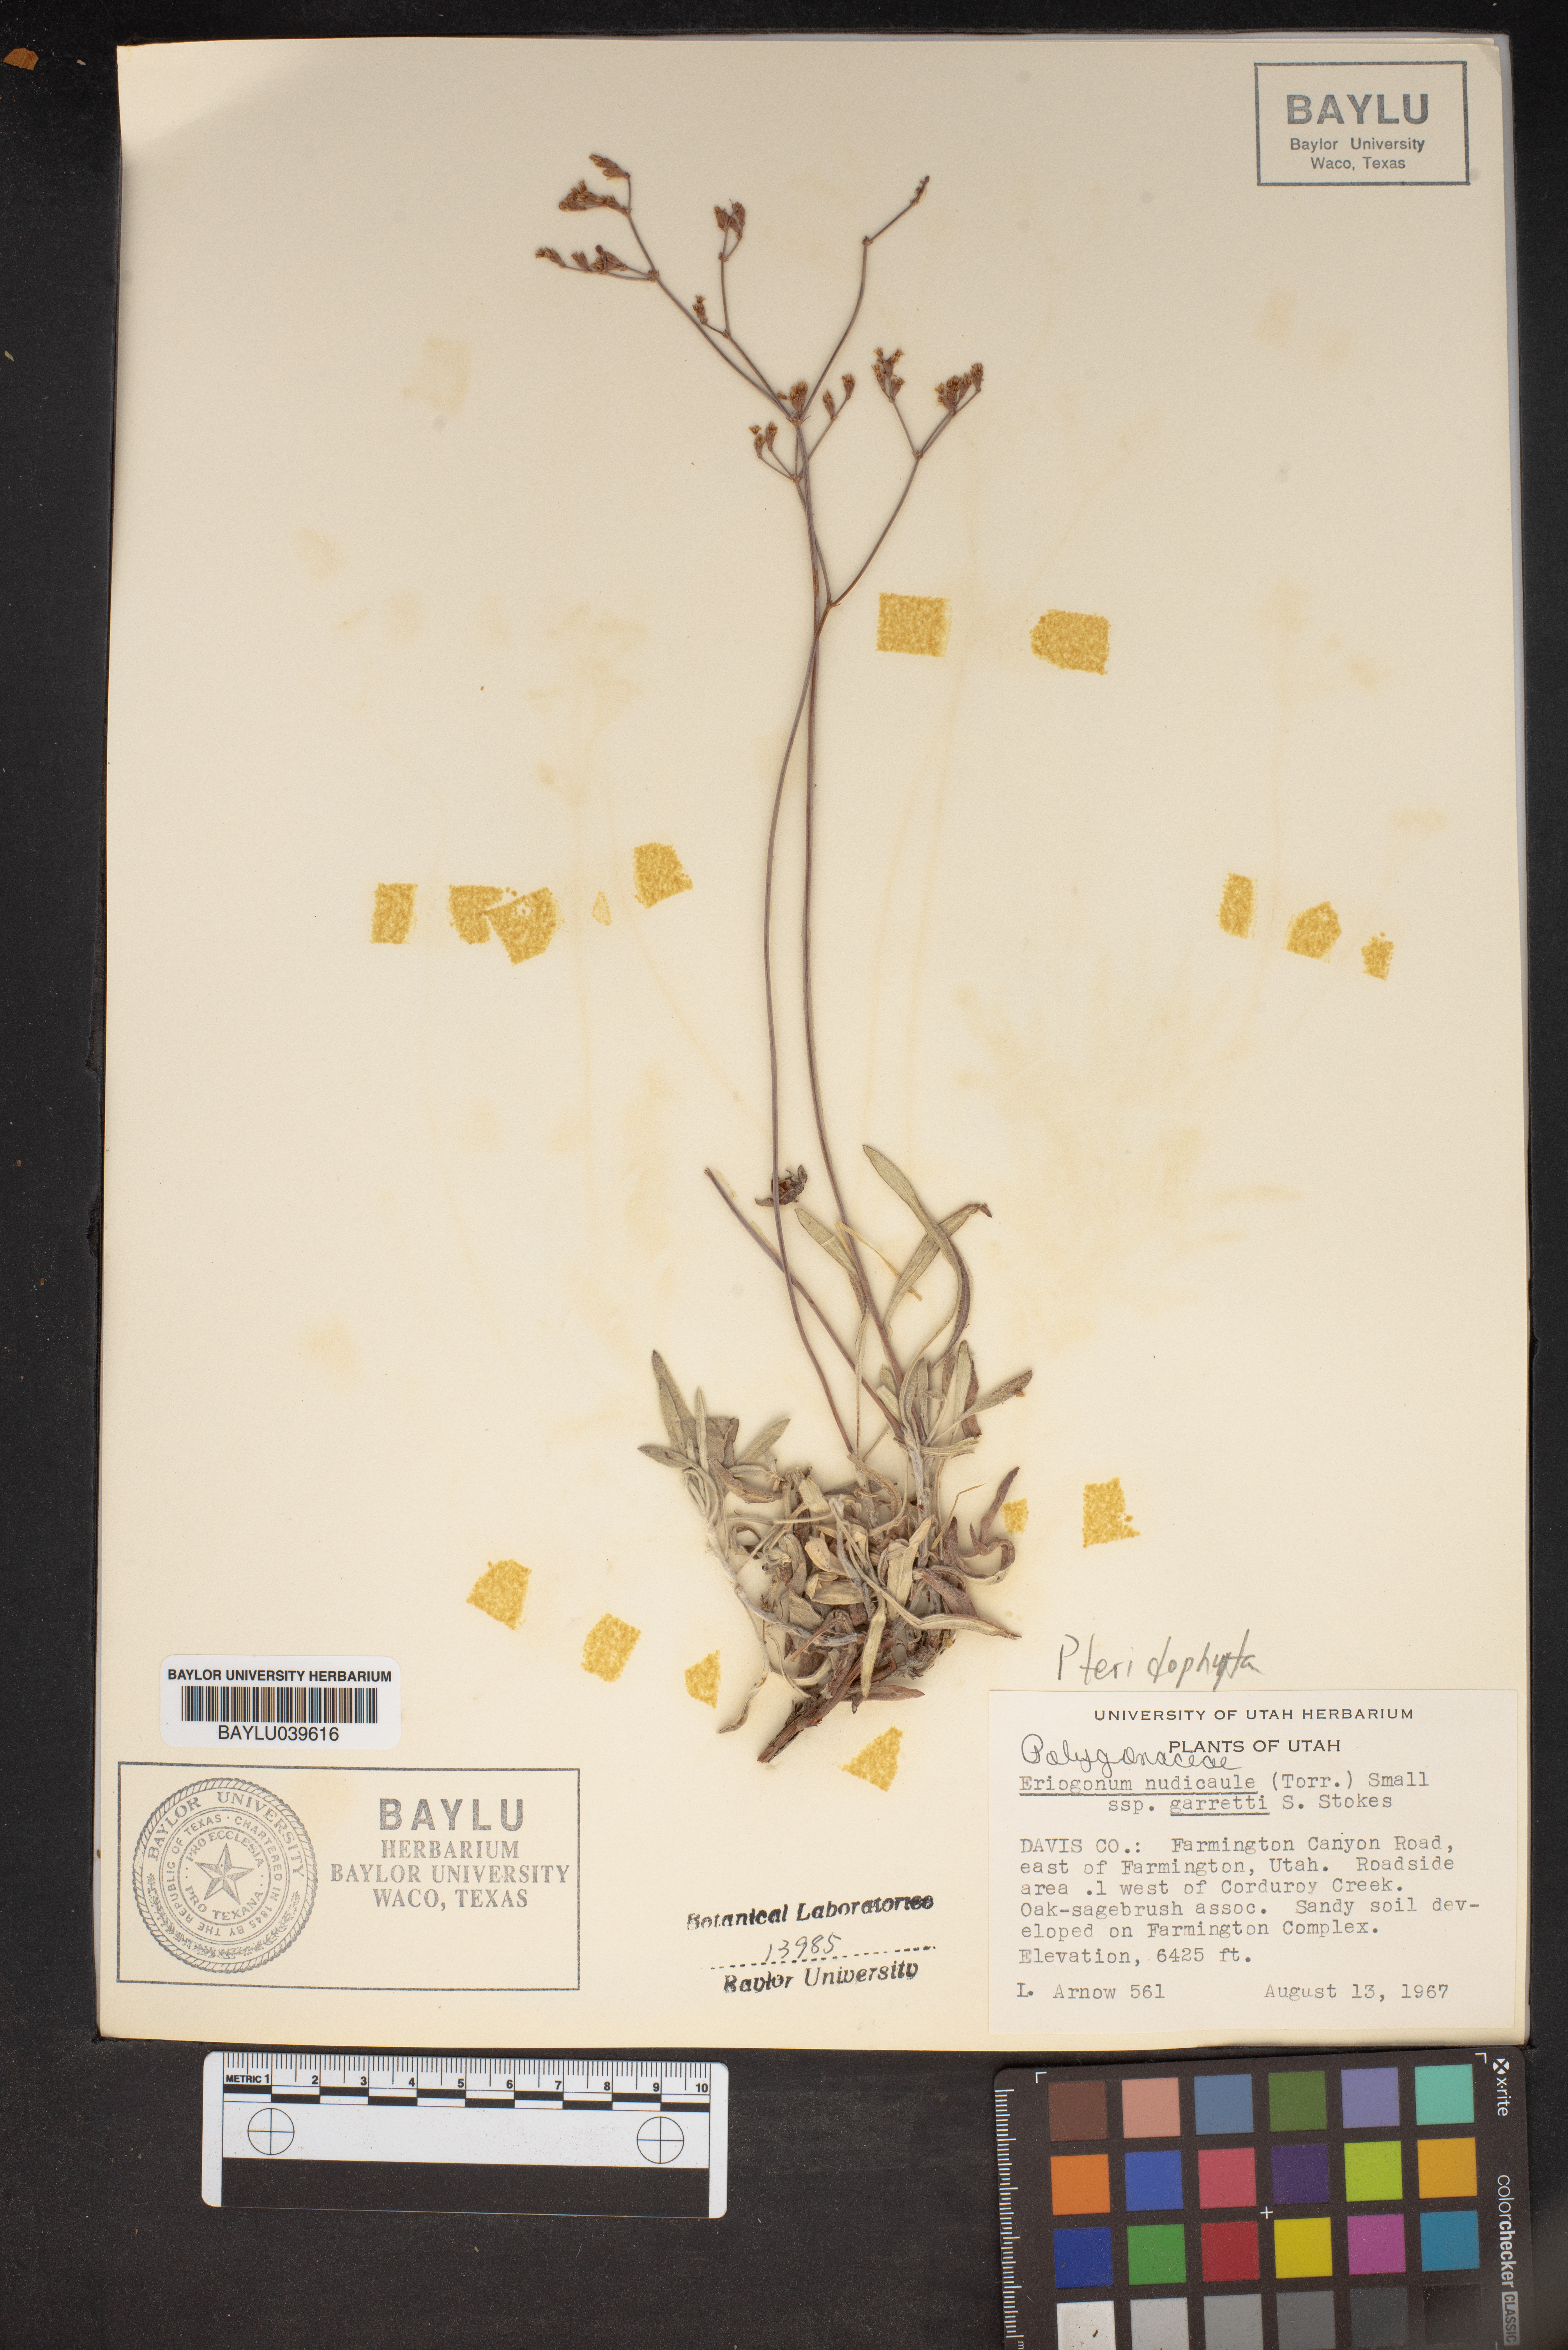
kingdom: Plantae
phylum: Tracheophyta
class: Magnoliopsida
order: Caryophyllales
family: Polygonaceae
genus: Eriogonum
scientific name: Eriogonum brevicaule
